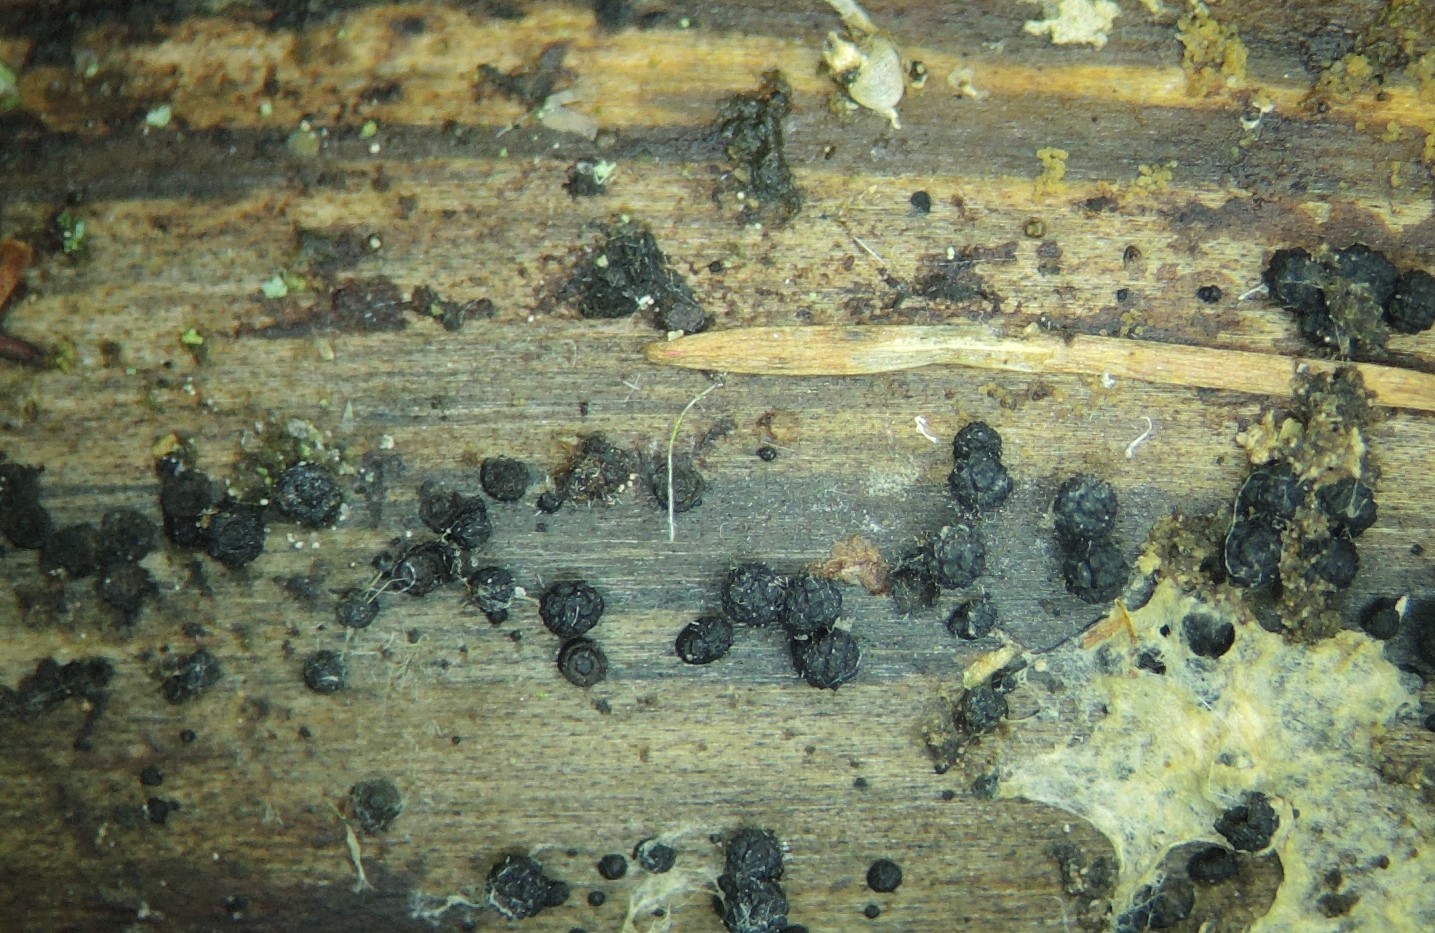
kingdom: Fungi
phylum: Ascomycota
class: Sordariomycetes
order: Coronophorales
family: Bertiaceae
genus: Bertia
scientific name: Bertia moriformis
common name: almindelig morbærkerne
